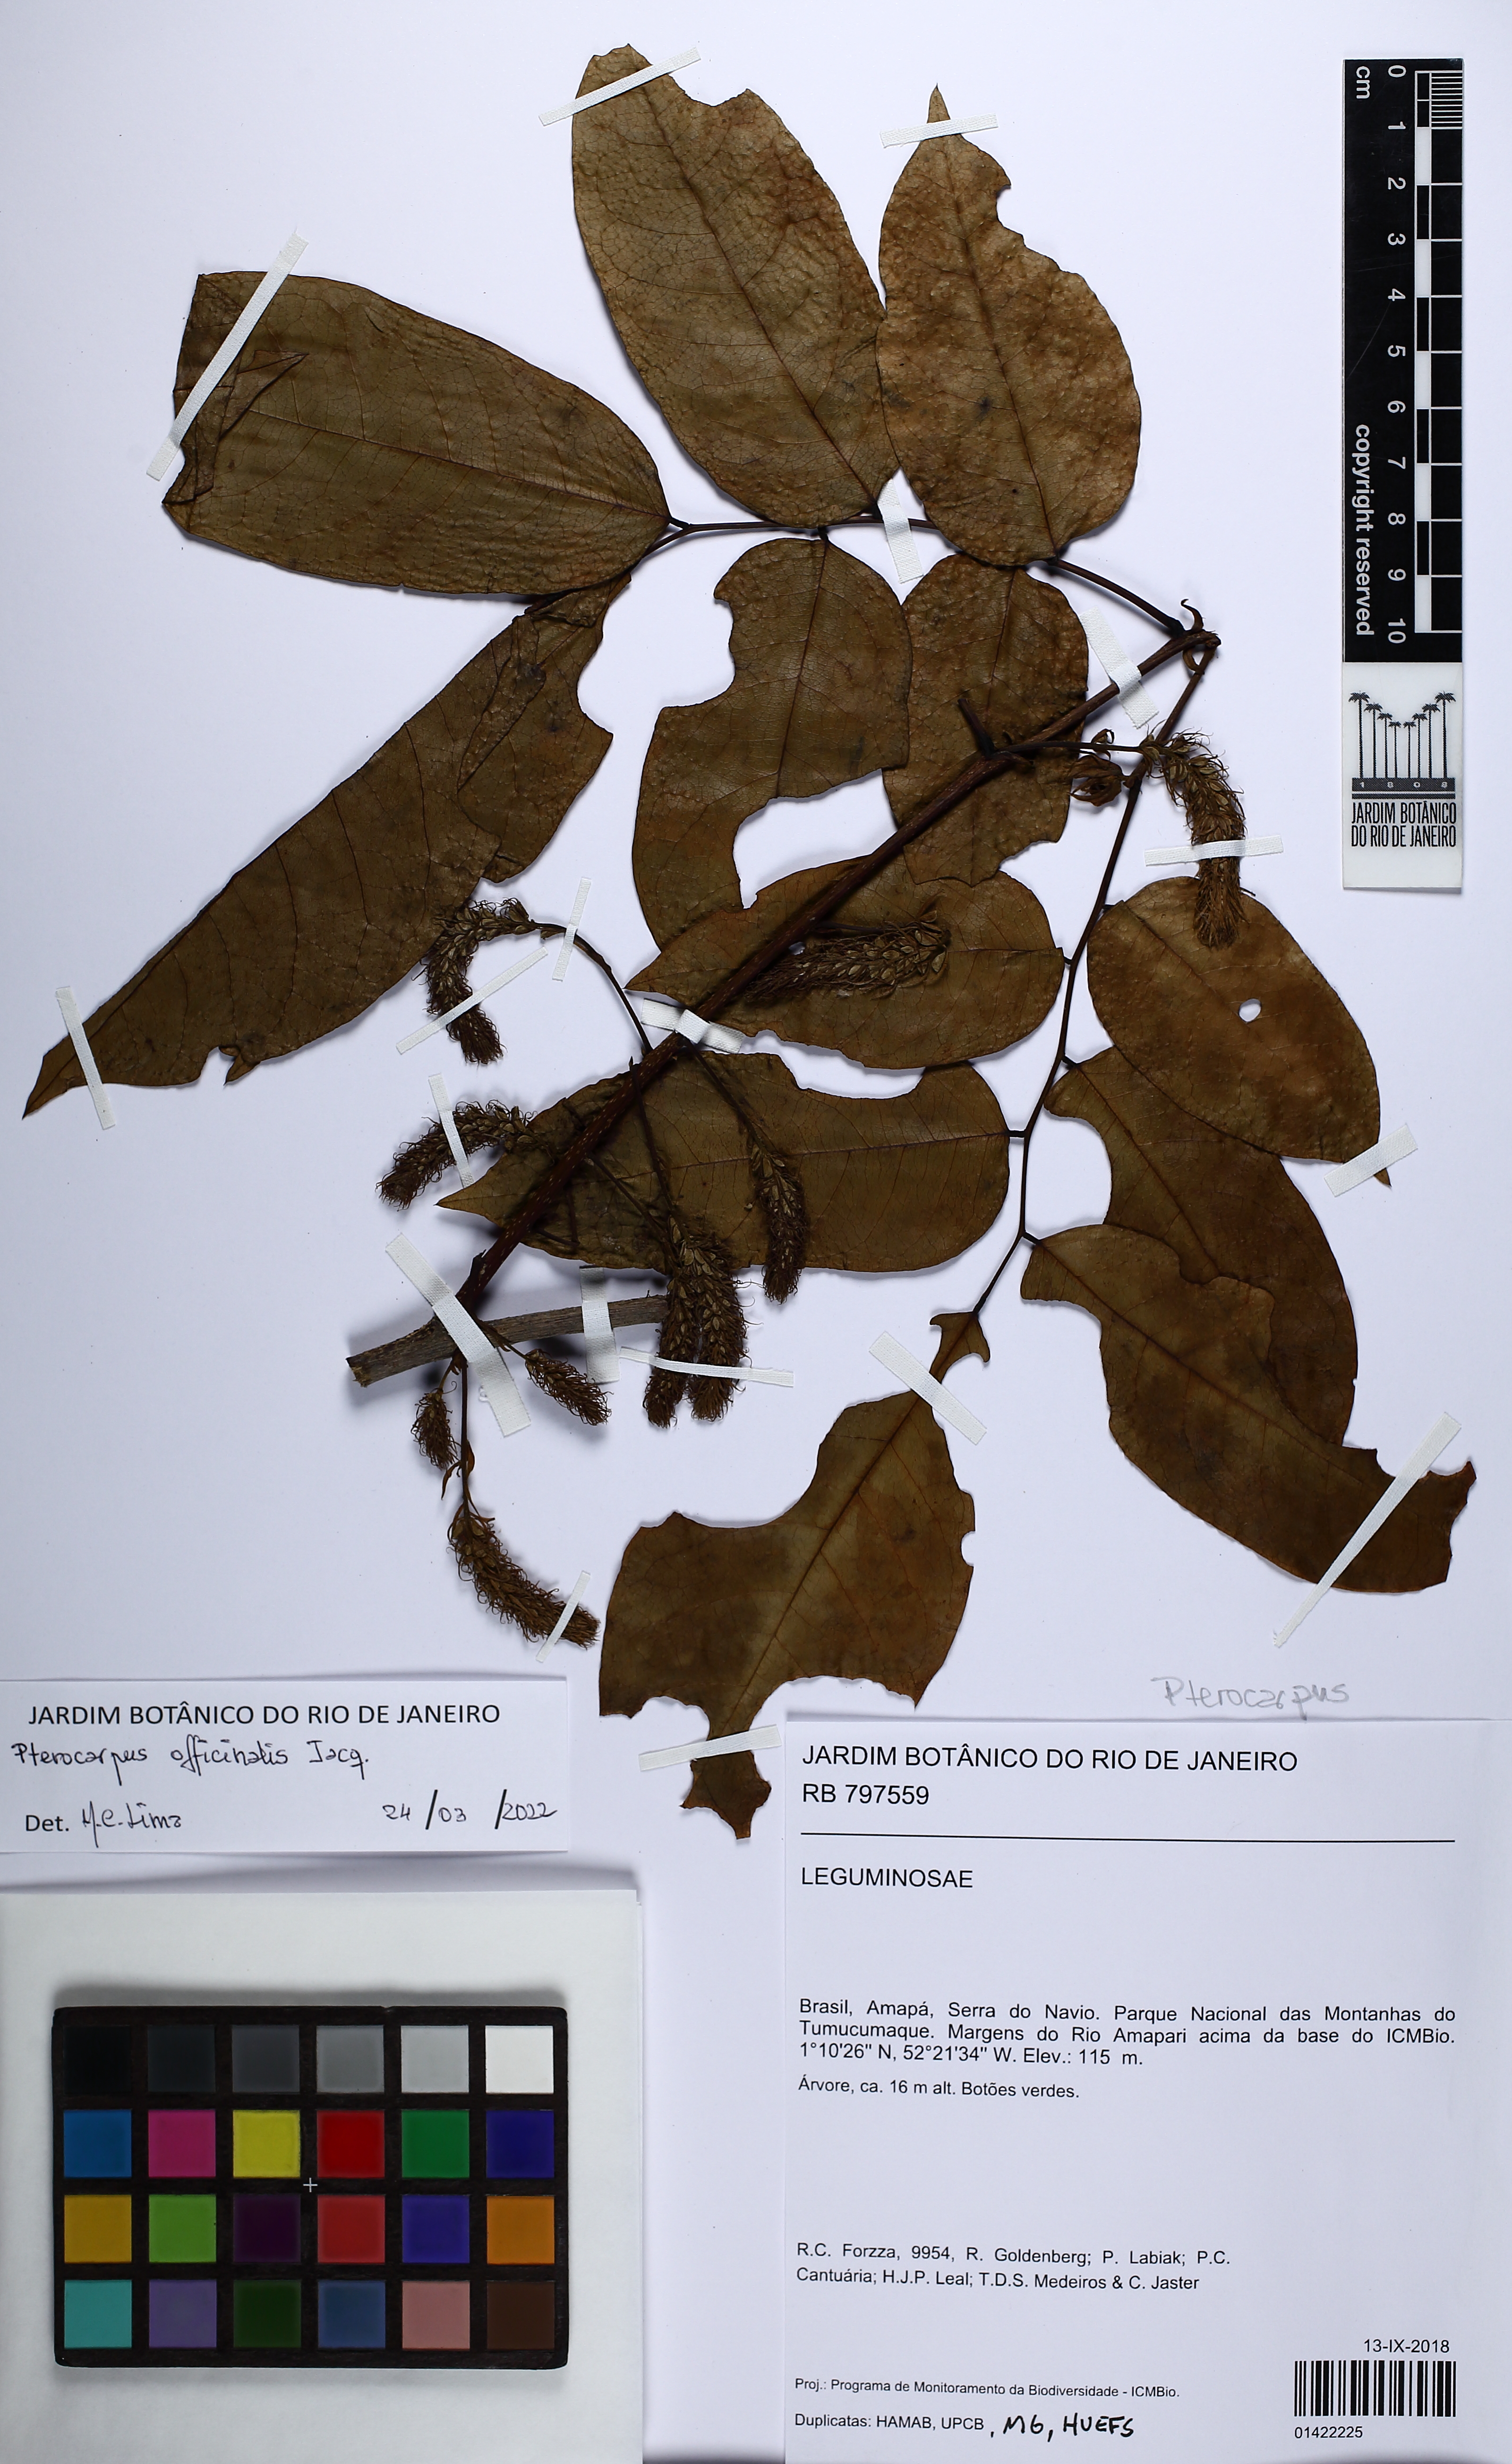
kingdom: Plantae
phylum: Tracheophyta
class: Magnoliopsida
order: Fabales
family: Fabaceae
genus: Pterocarpus
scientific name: Pterocarpus officinalis
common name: Bloodwood
